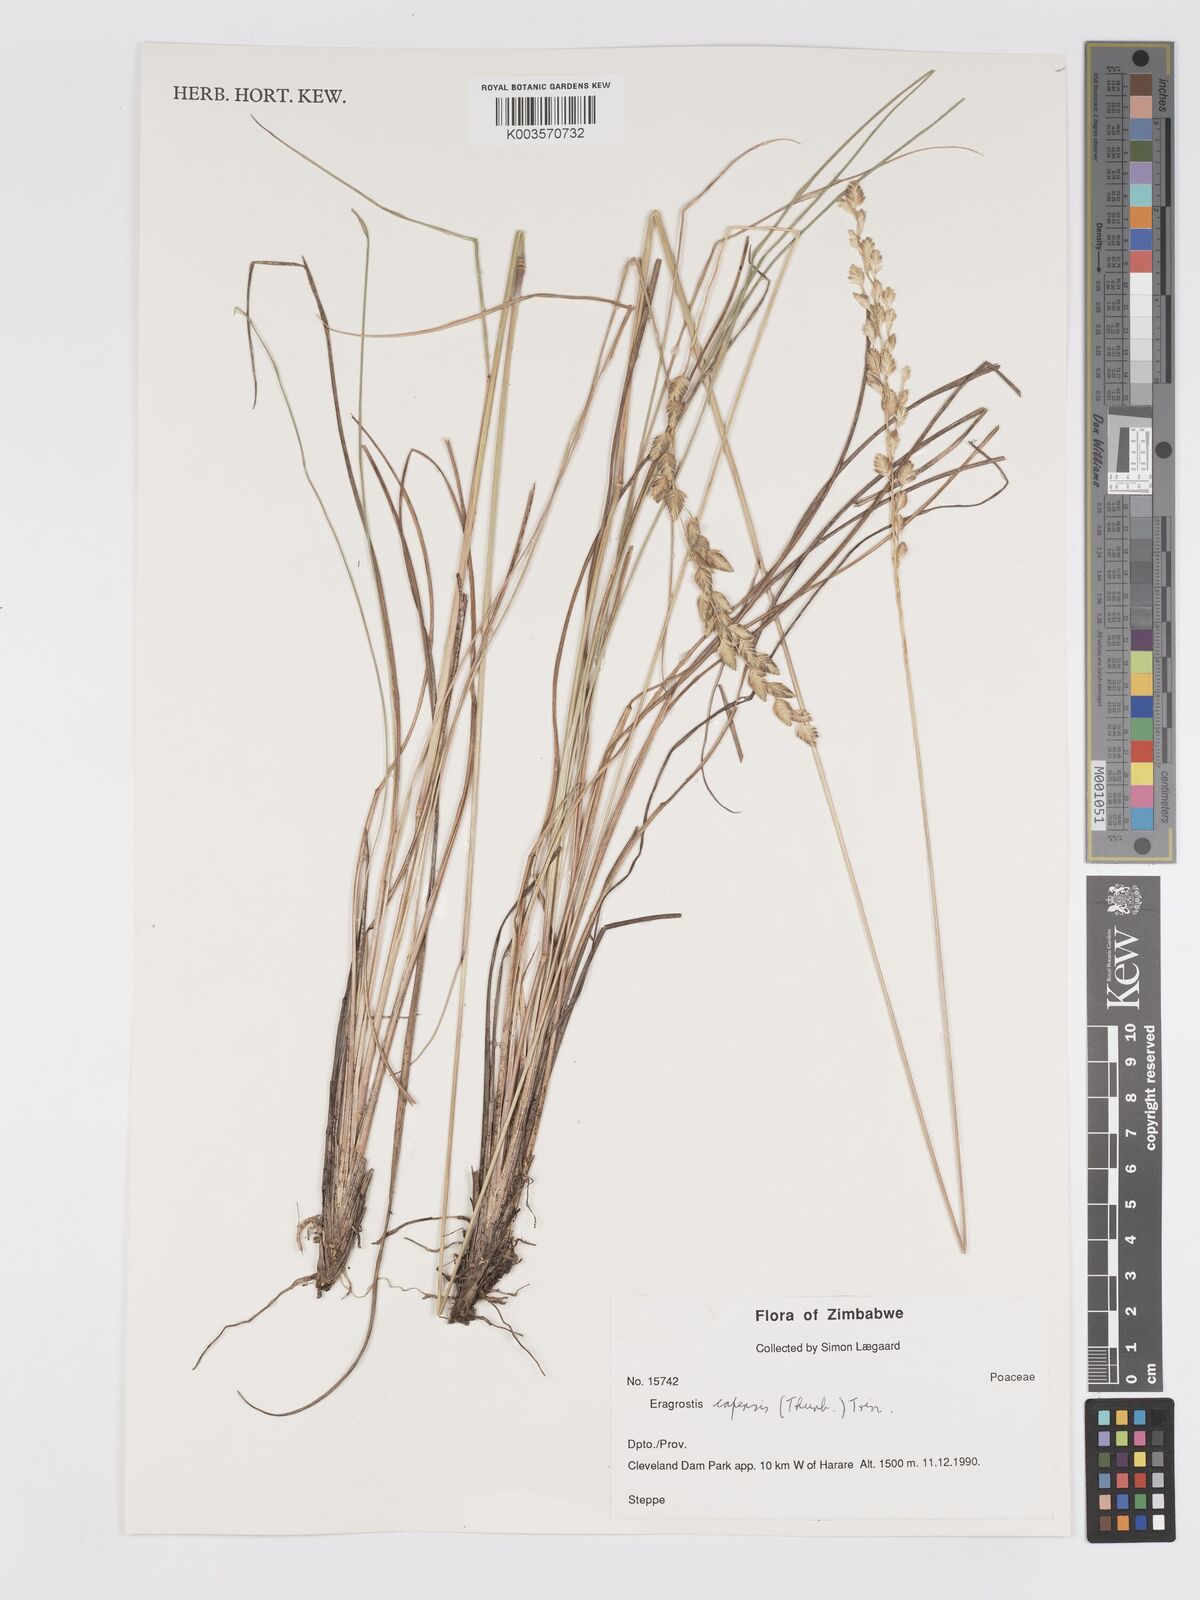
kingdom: Plantae
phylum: Tracheophyta
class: Liliopsida
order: Poales
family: Poaceae
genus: Eragrostis
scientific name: Eragrostis capensis
